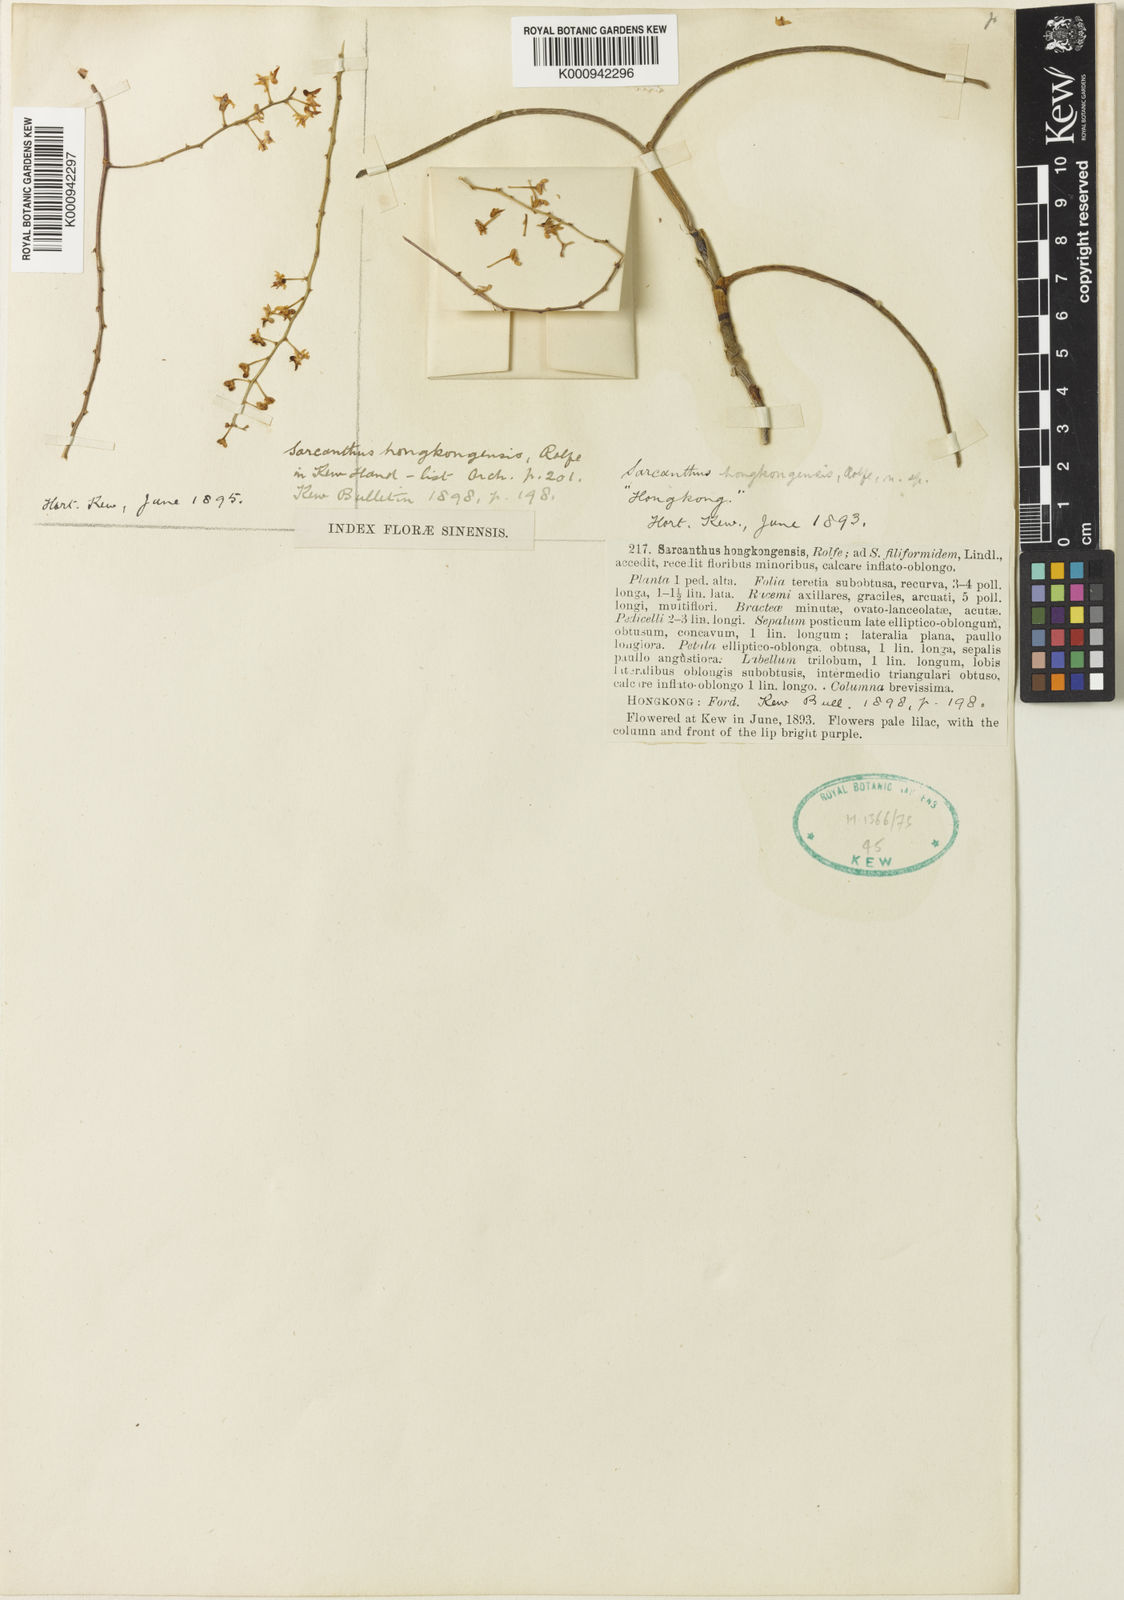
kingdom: Plantae
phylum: Tracheophyta
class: Liliopsida
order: Asparagales
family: Orchidaceae
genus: Cleisostoma
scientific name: Cleisostoma williamsonii
